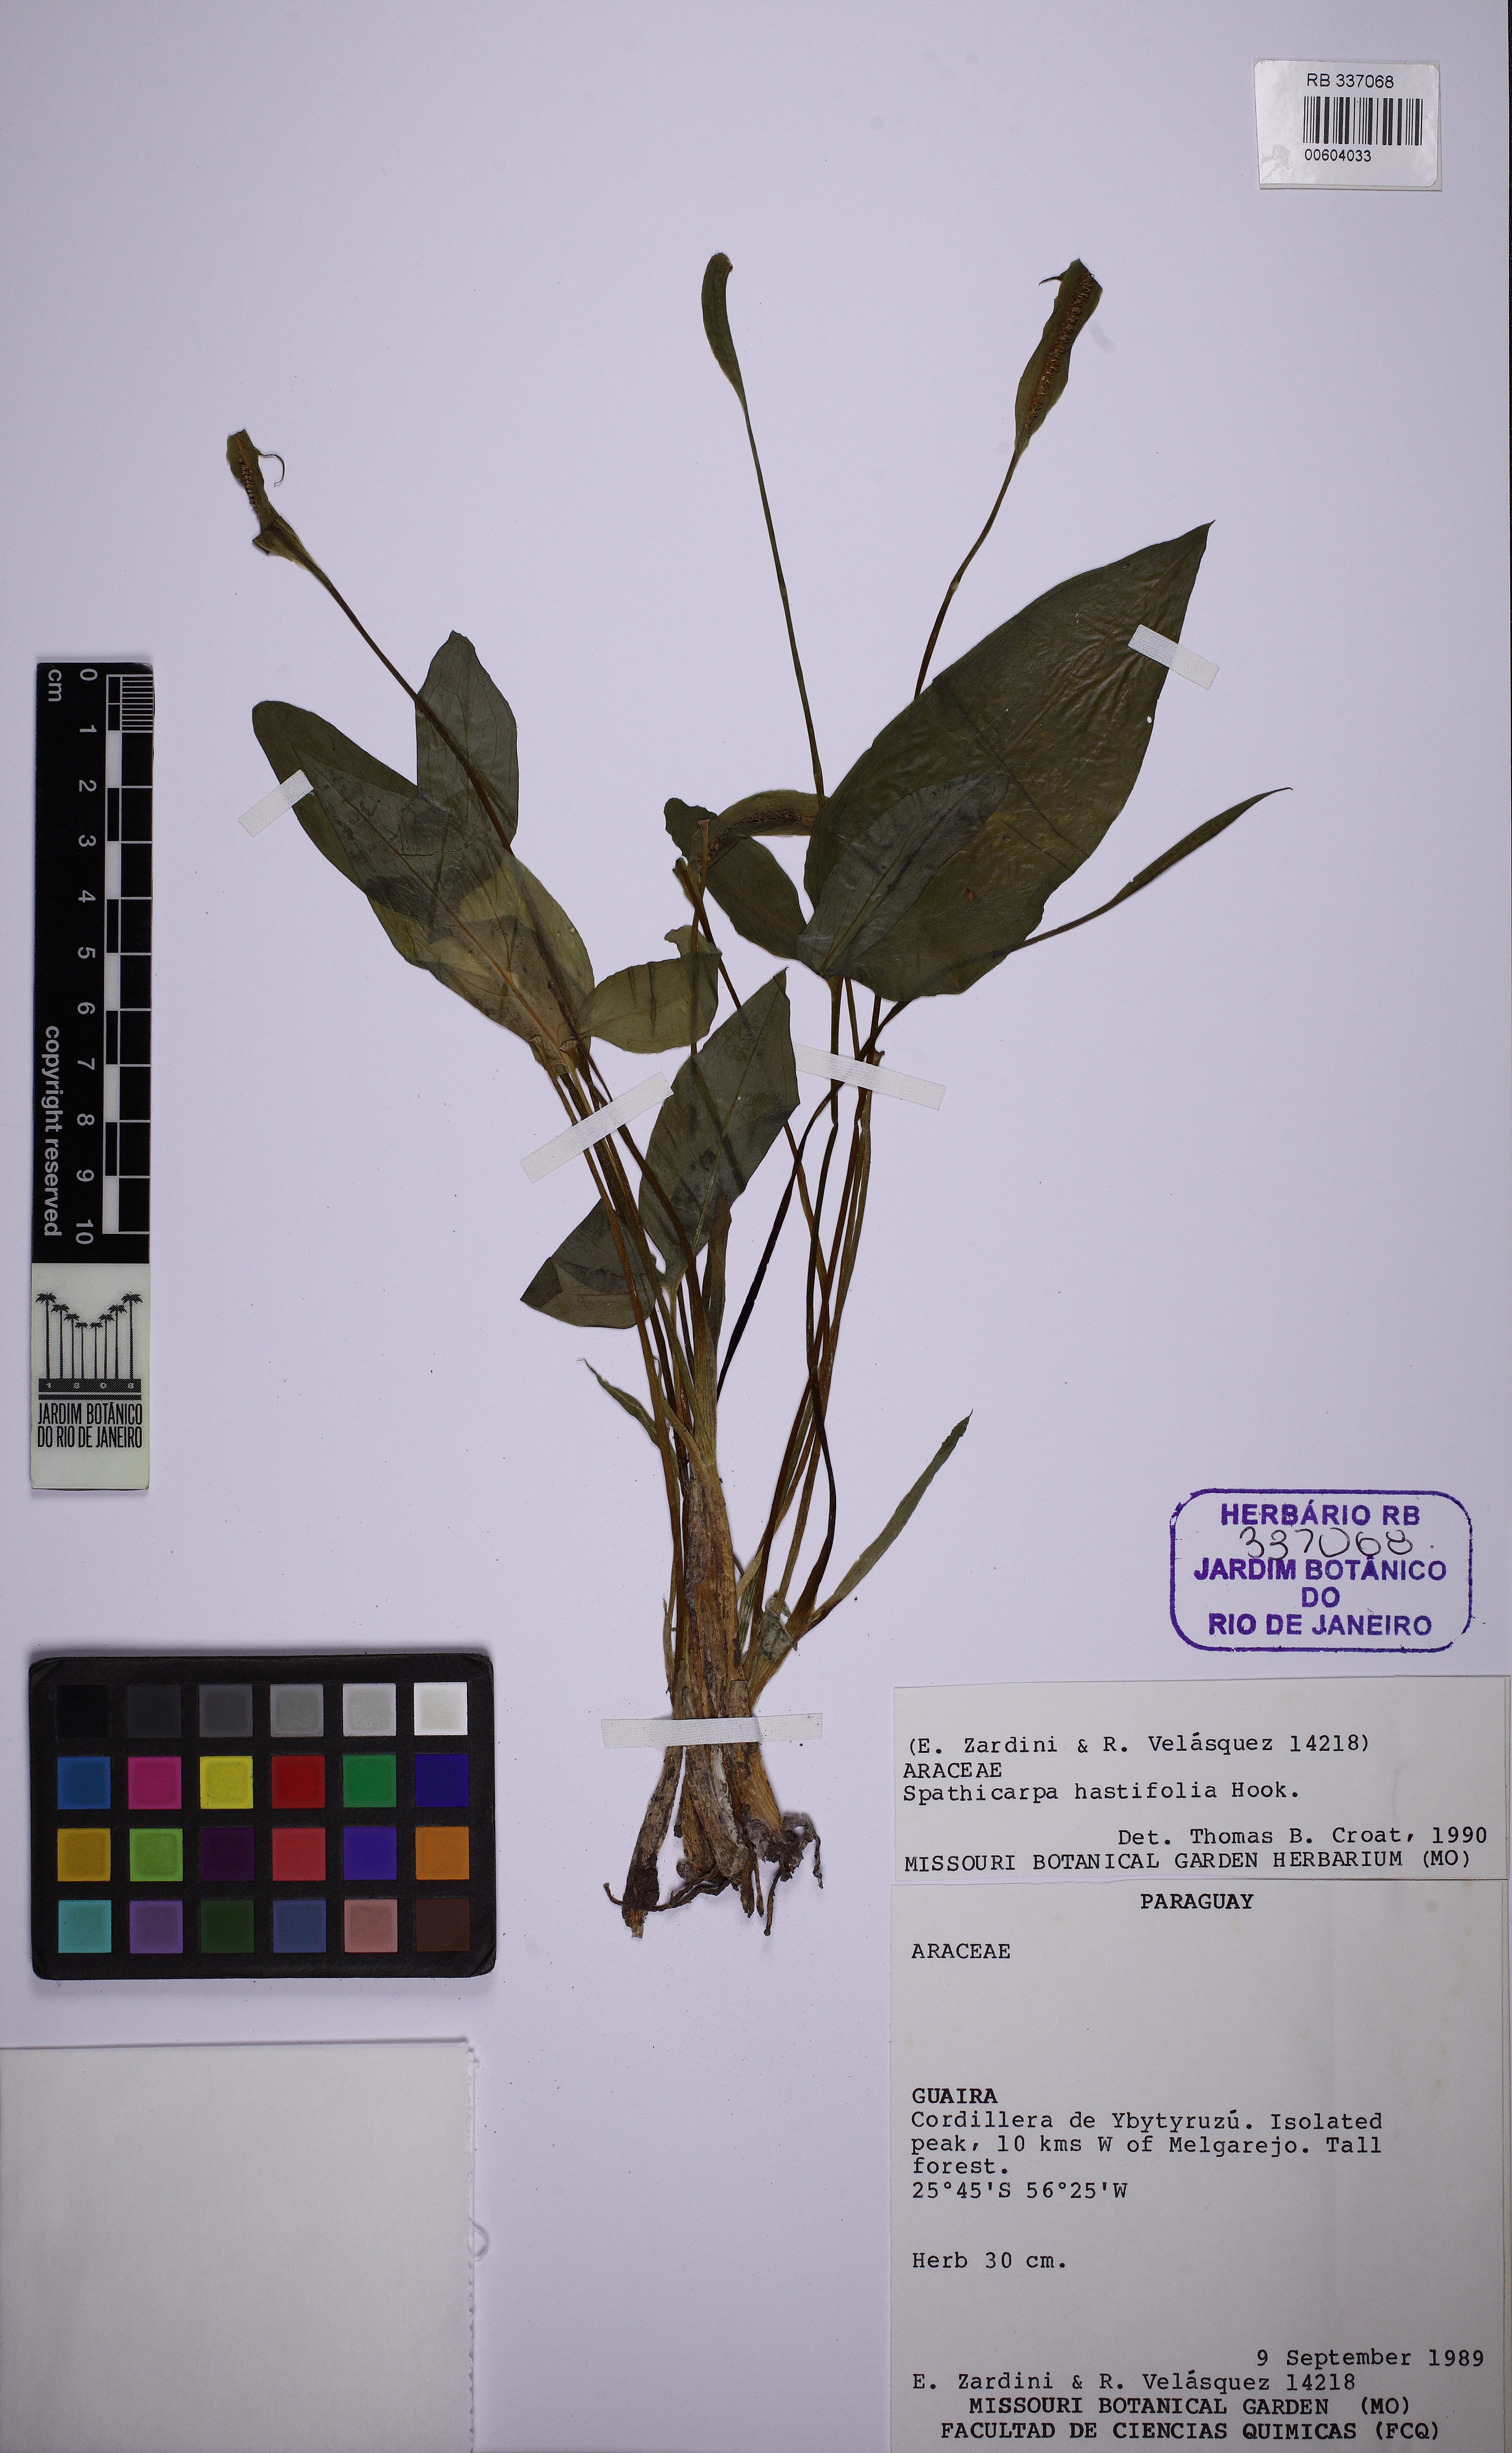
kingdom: Plantae
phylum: Tracheophyta
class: Liliopsida
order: Alismatales
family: Araceae
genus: Spathicarpa
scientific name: Spathicarpa hastifolia
